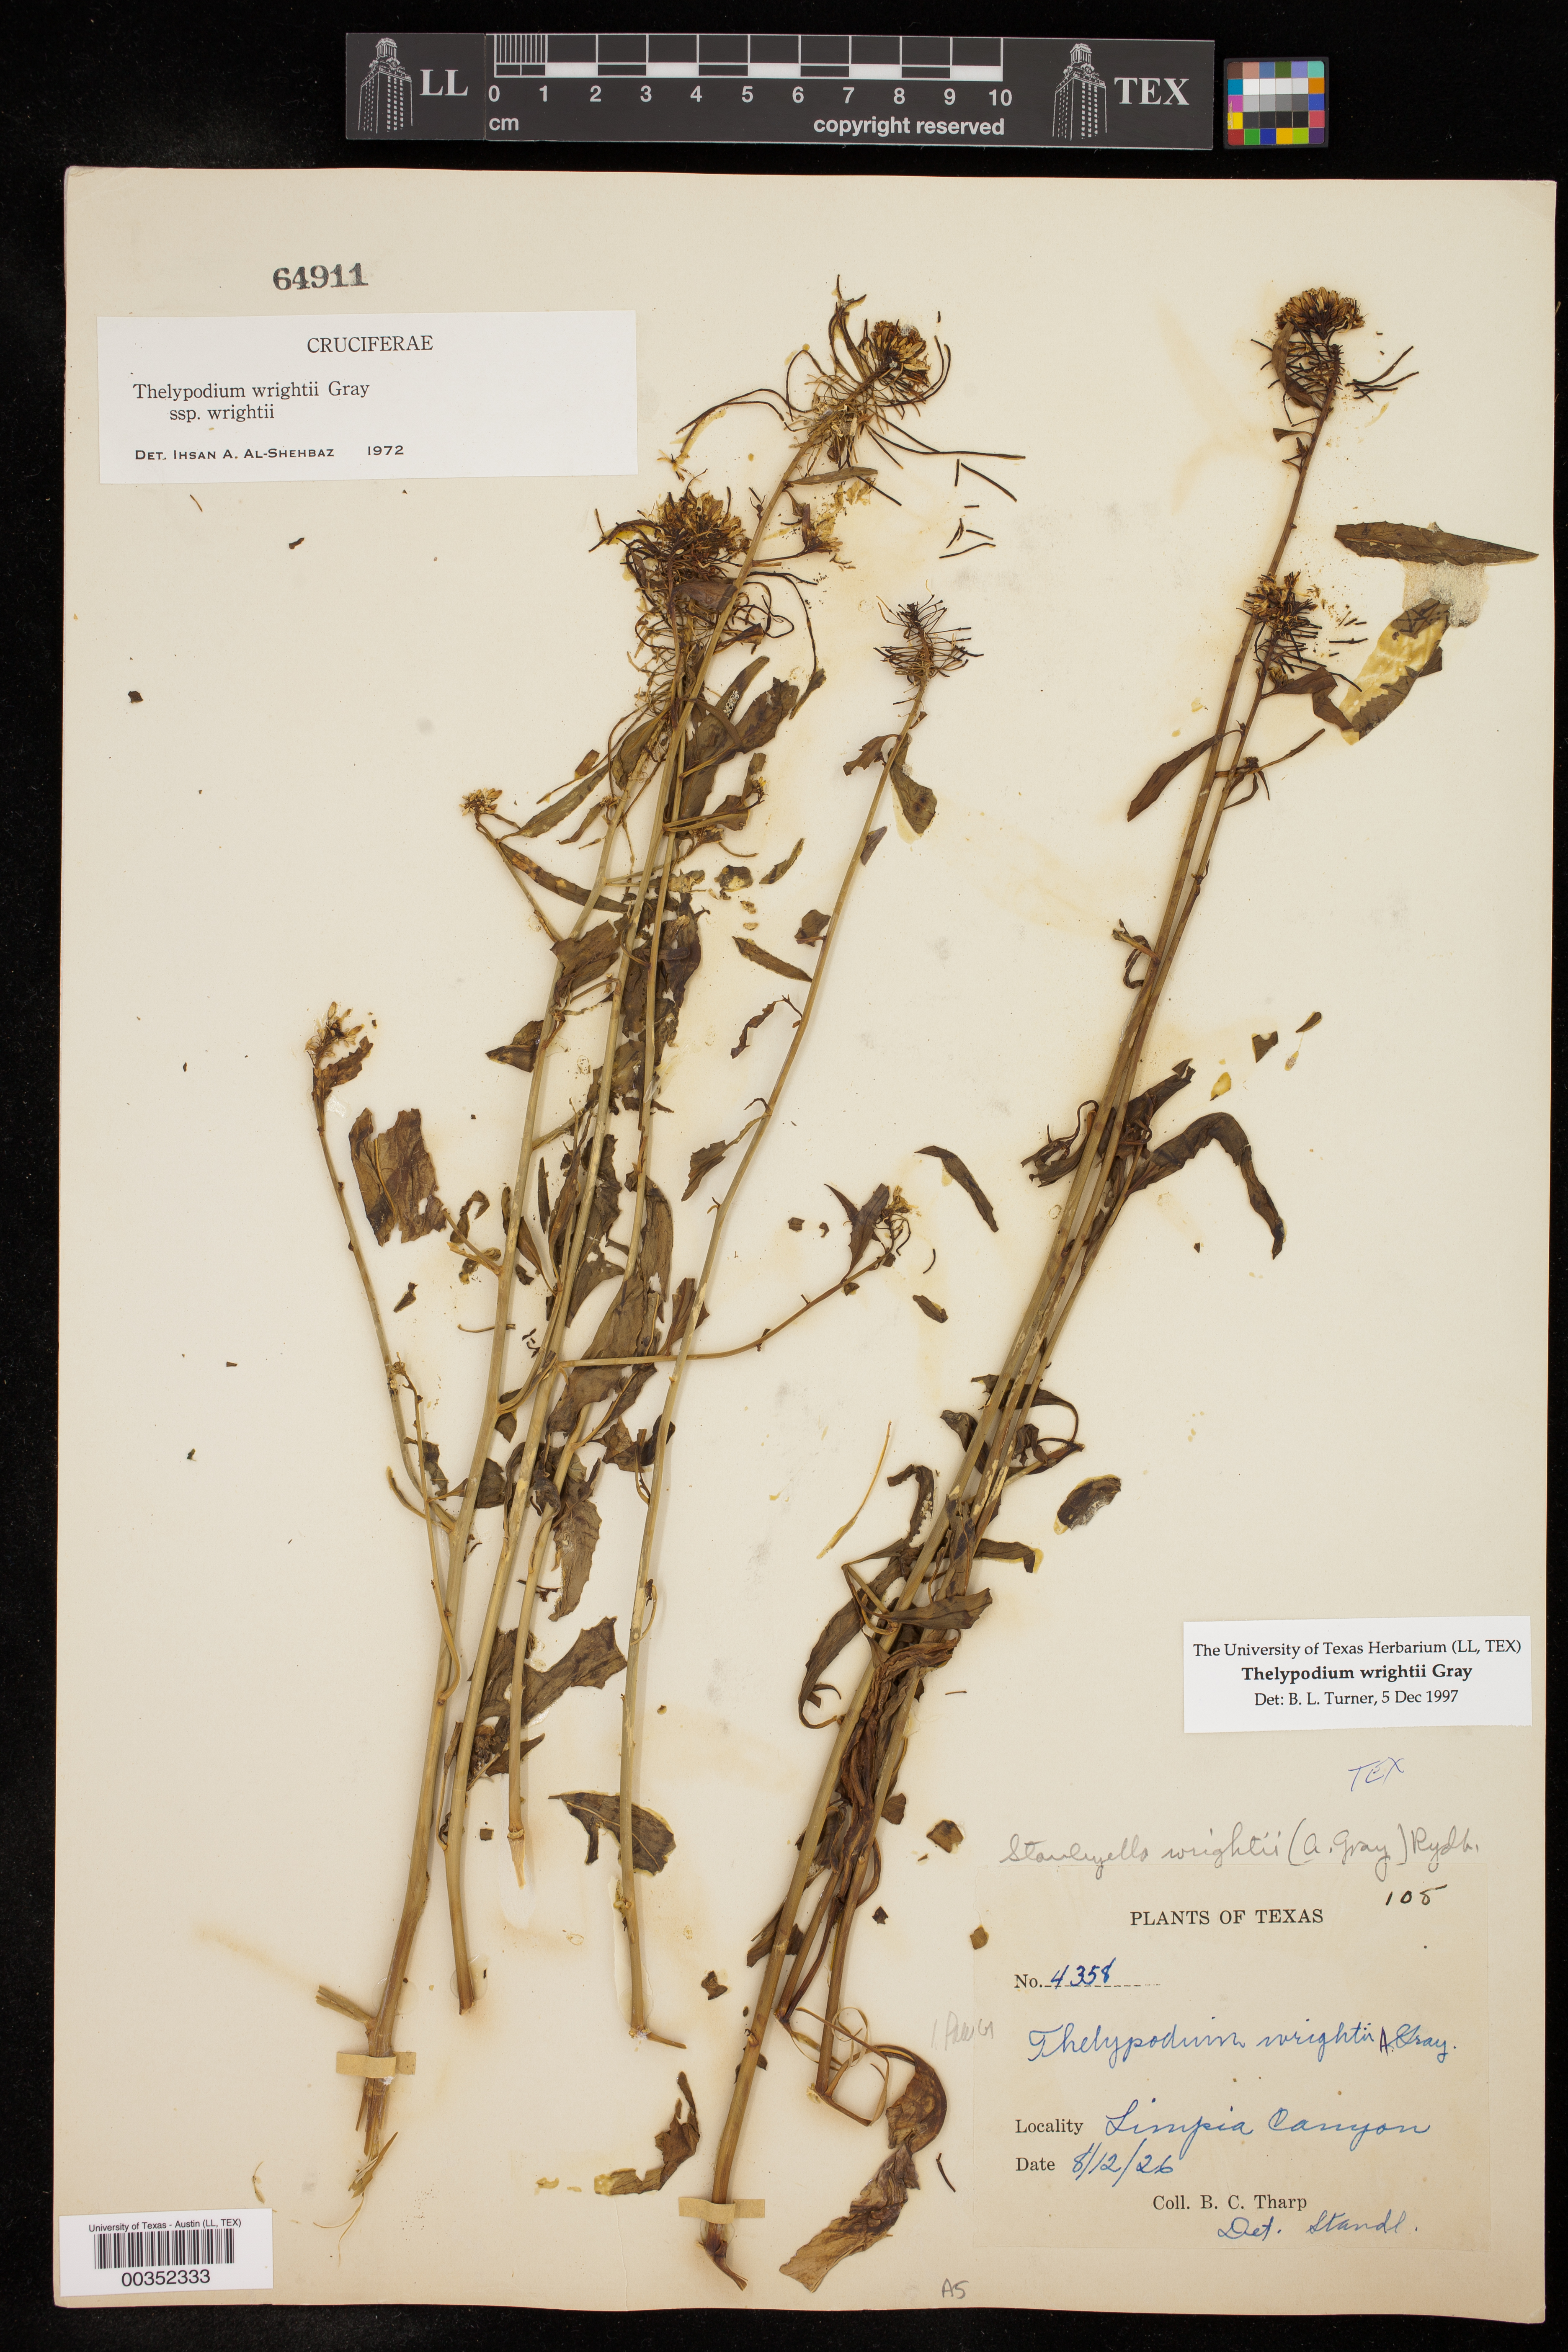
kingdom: Plantae
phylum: Tracheophyta
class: Magnoliopsida
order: Brassicales
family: Brassicaceae
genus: Thelypodium
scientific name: Thelypodium wrightii
